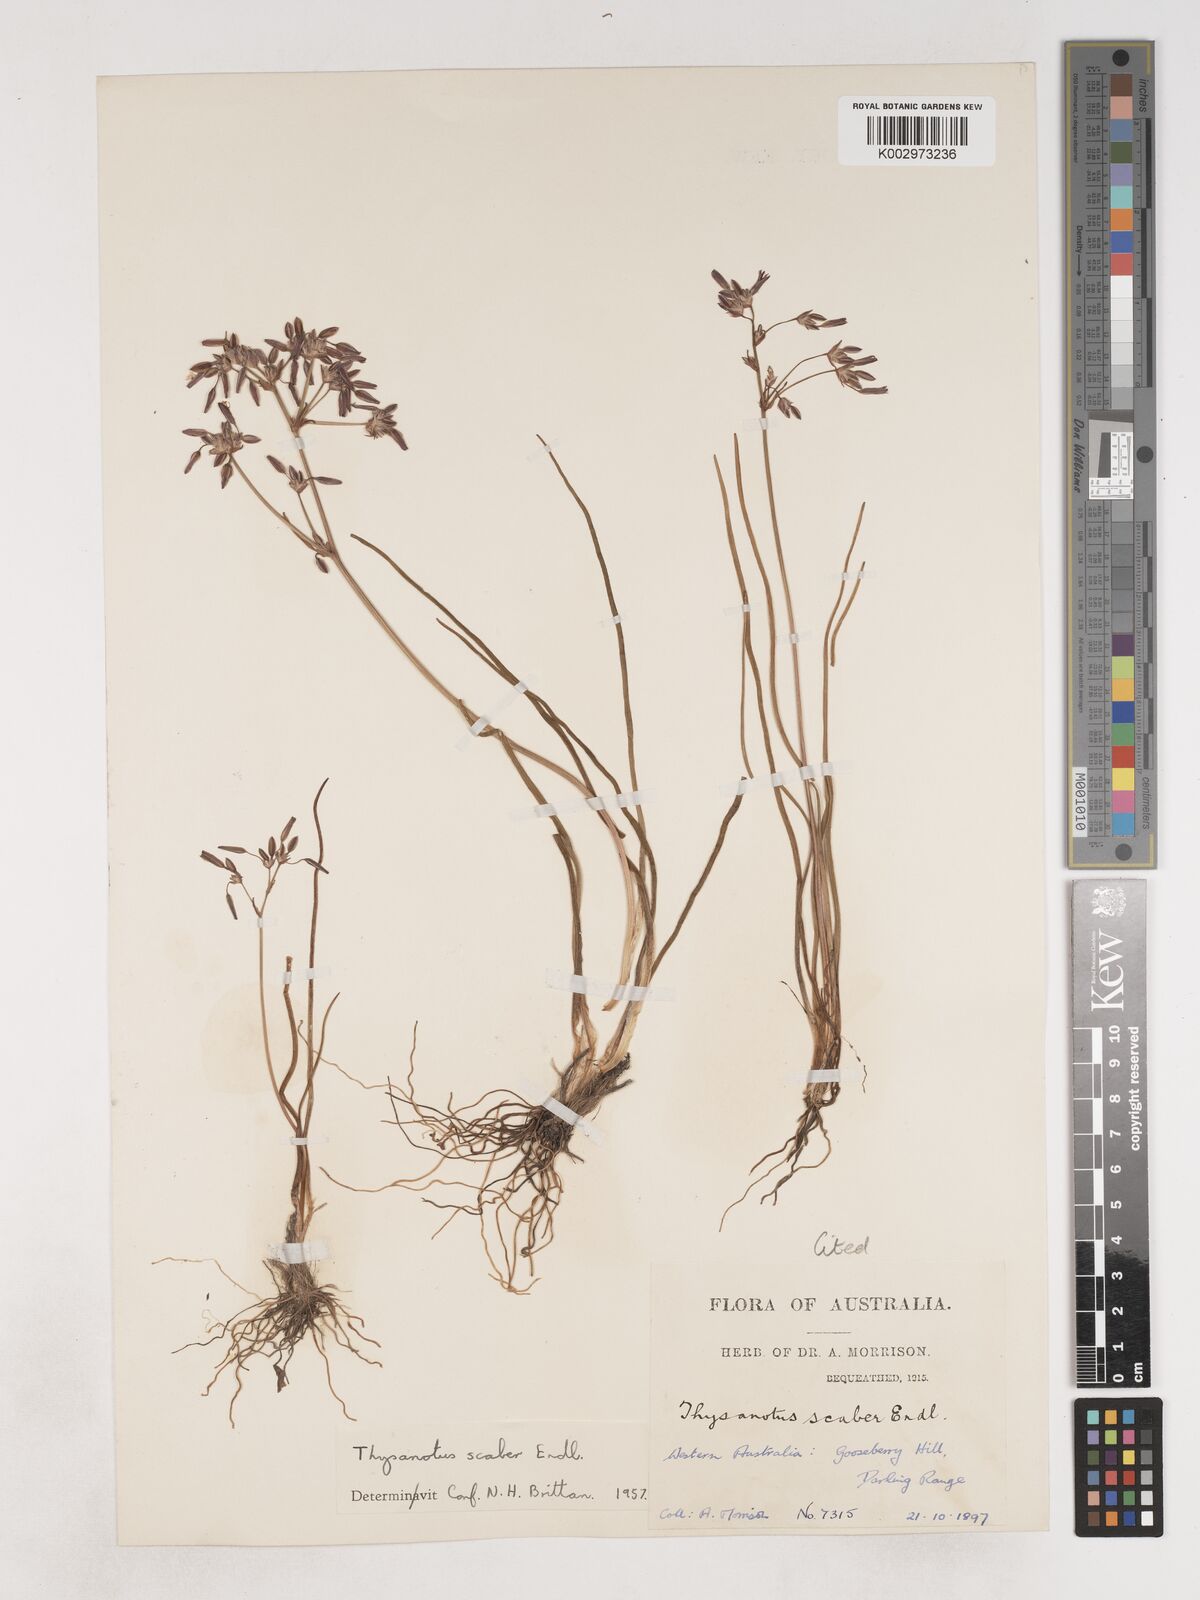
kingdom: Plantae
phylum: Tracheophyta
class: Liliopsida
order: Asparagales
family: Asparagaceae
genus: Thysanotus
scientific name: Thysanotus scaber
